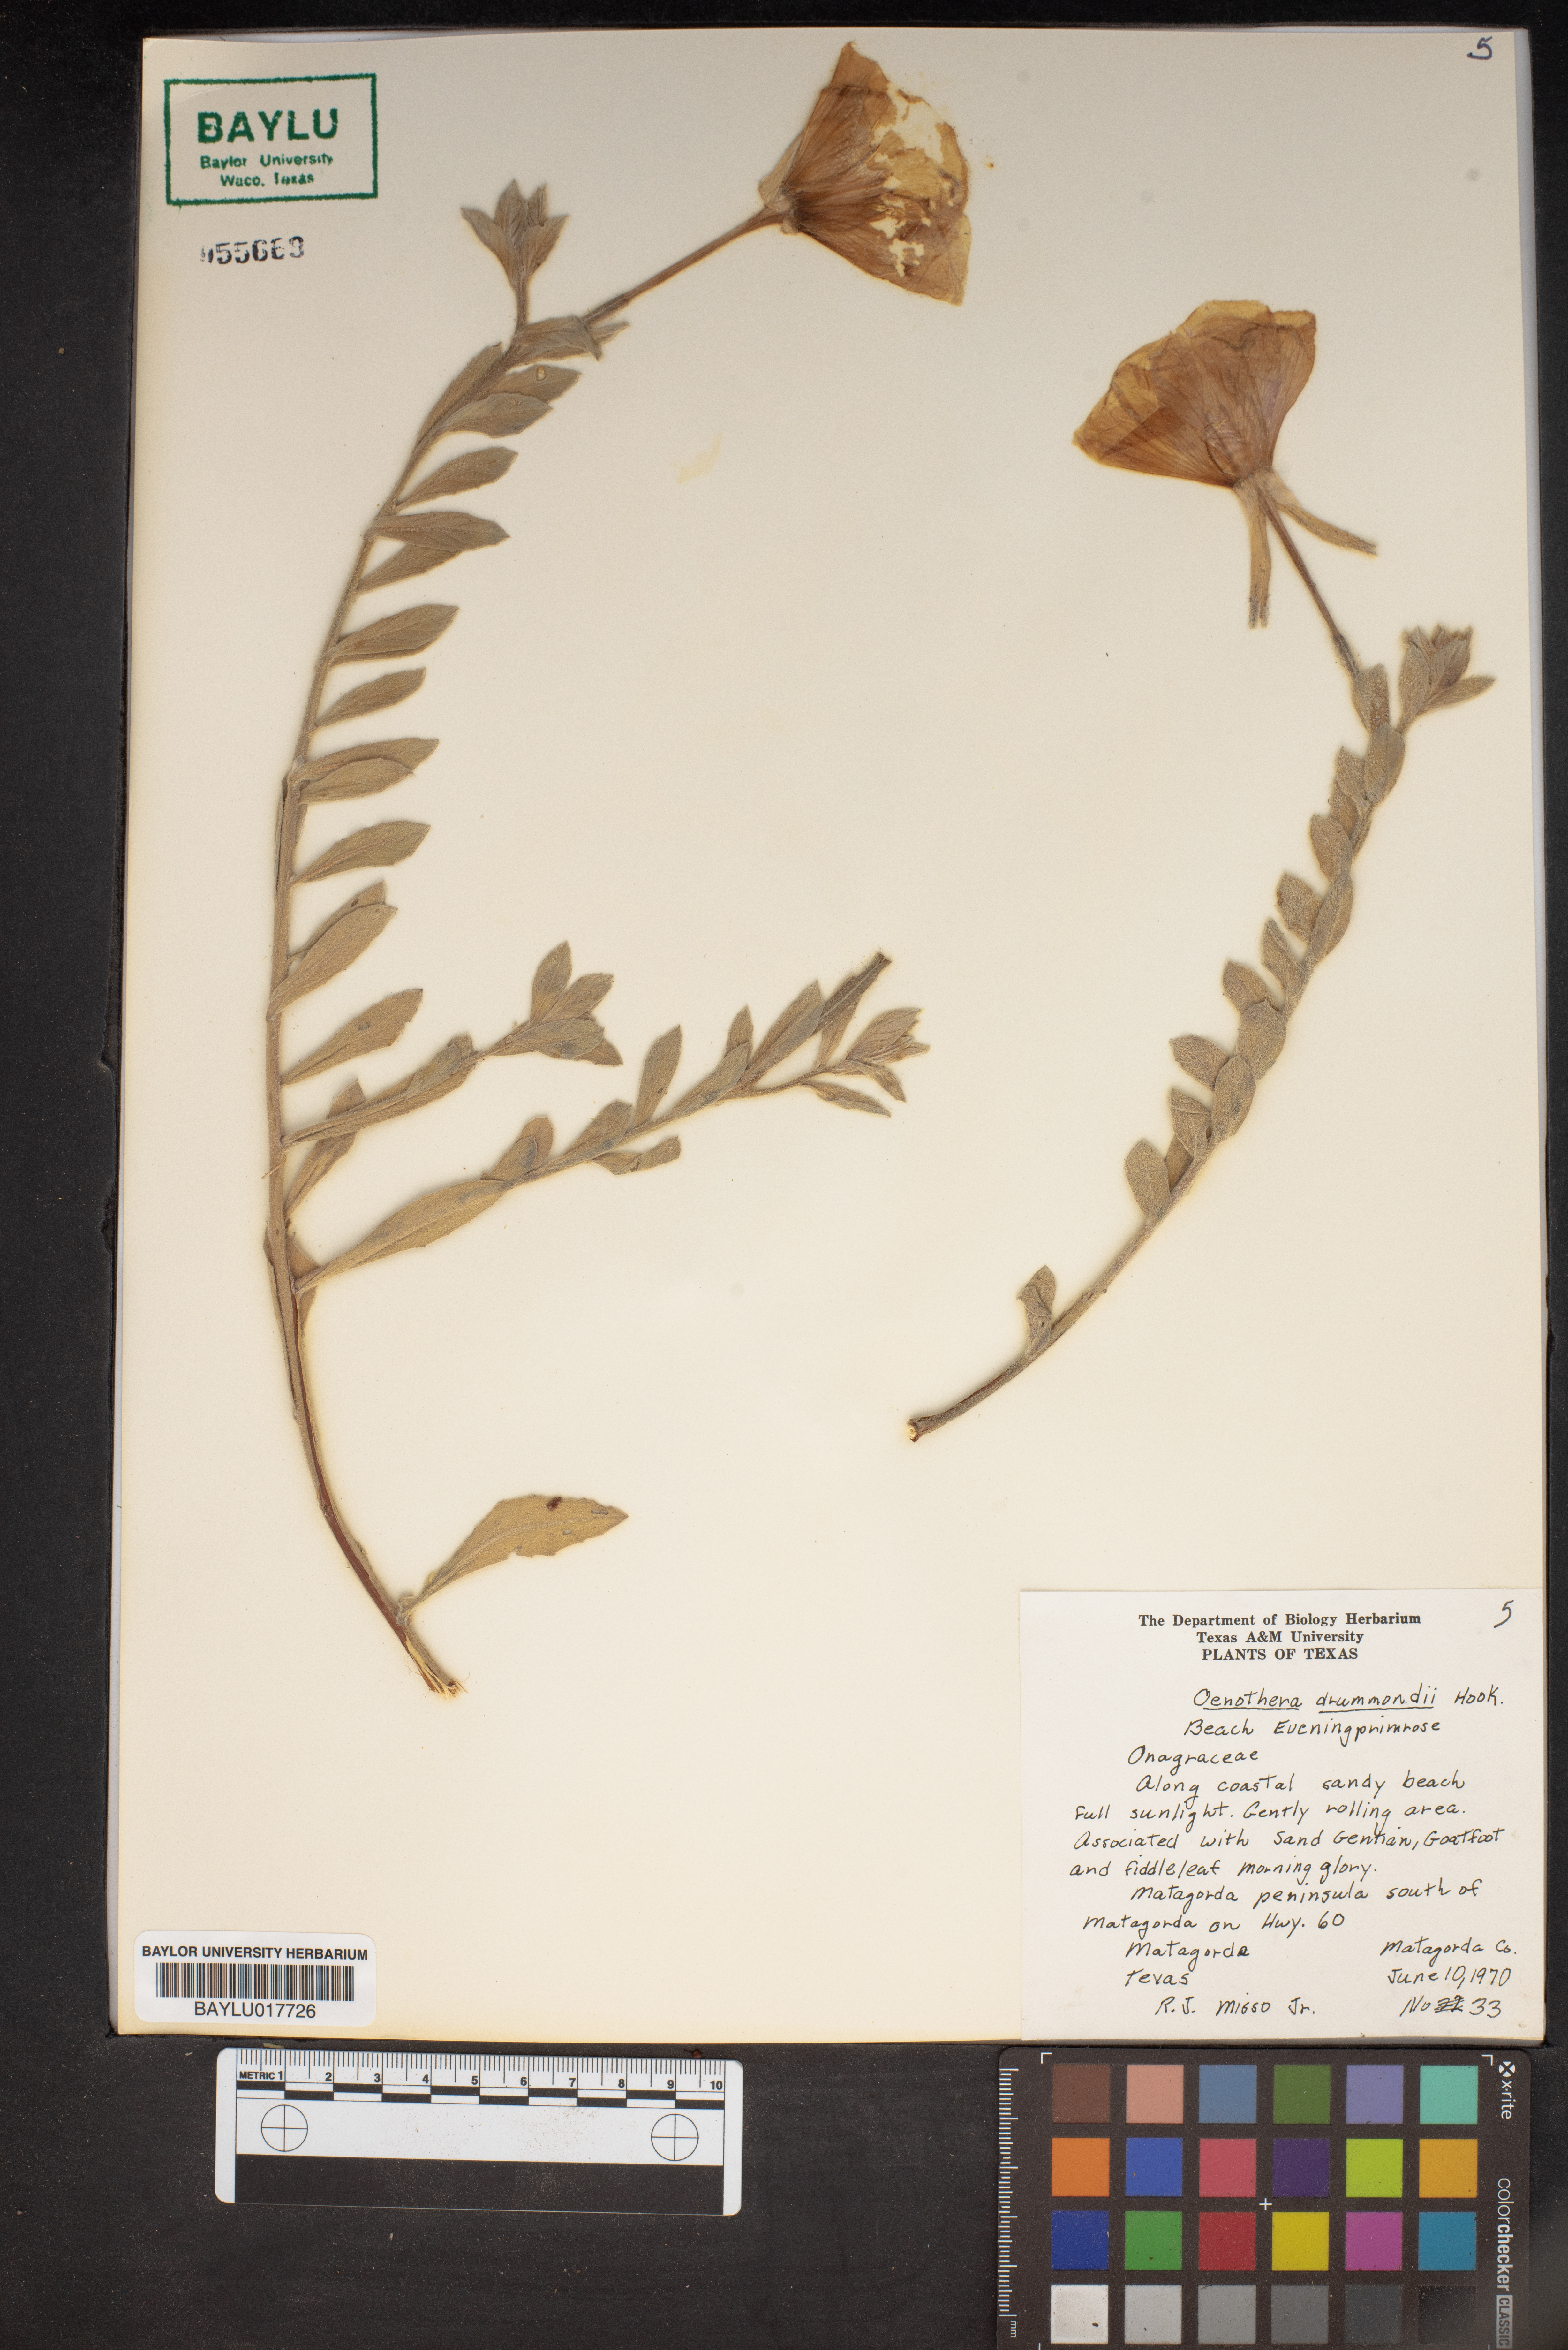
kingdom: Plantae
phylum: Tracheophyta
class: Magnoliopsida
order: Myrtales
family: Onagraceae
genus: Oenothera
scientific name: Oenothera drummondii
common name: Beach evening-primrose
